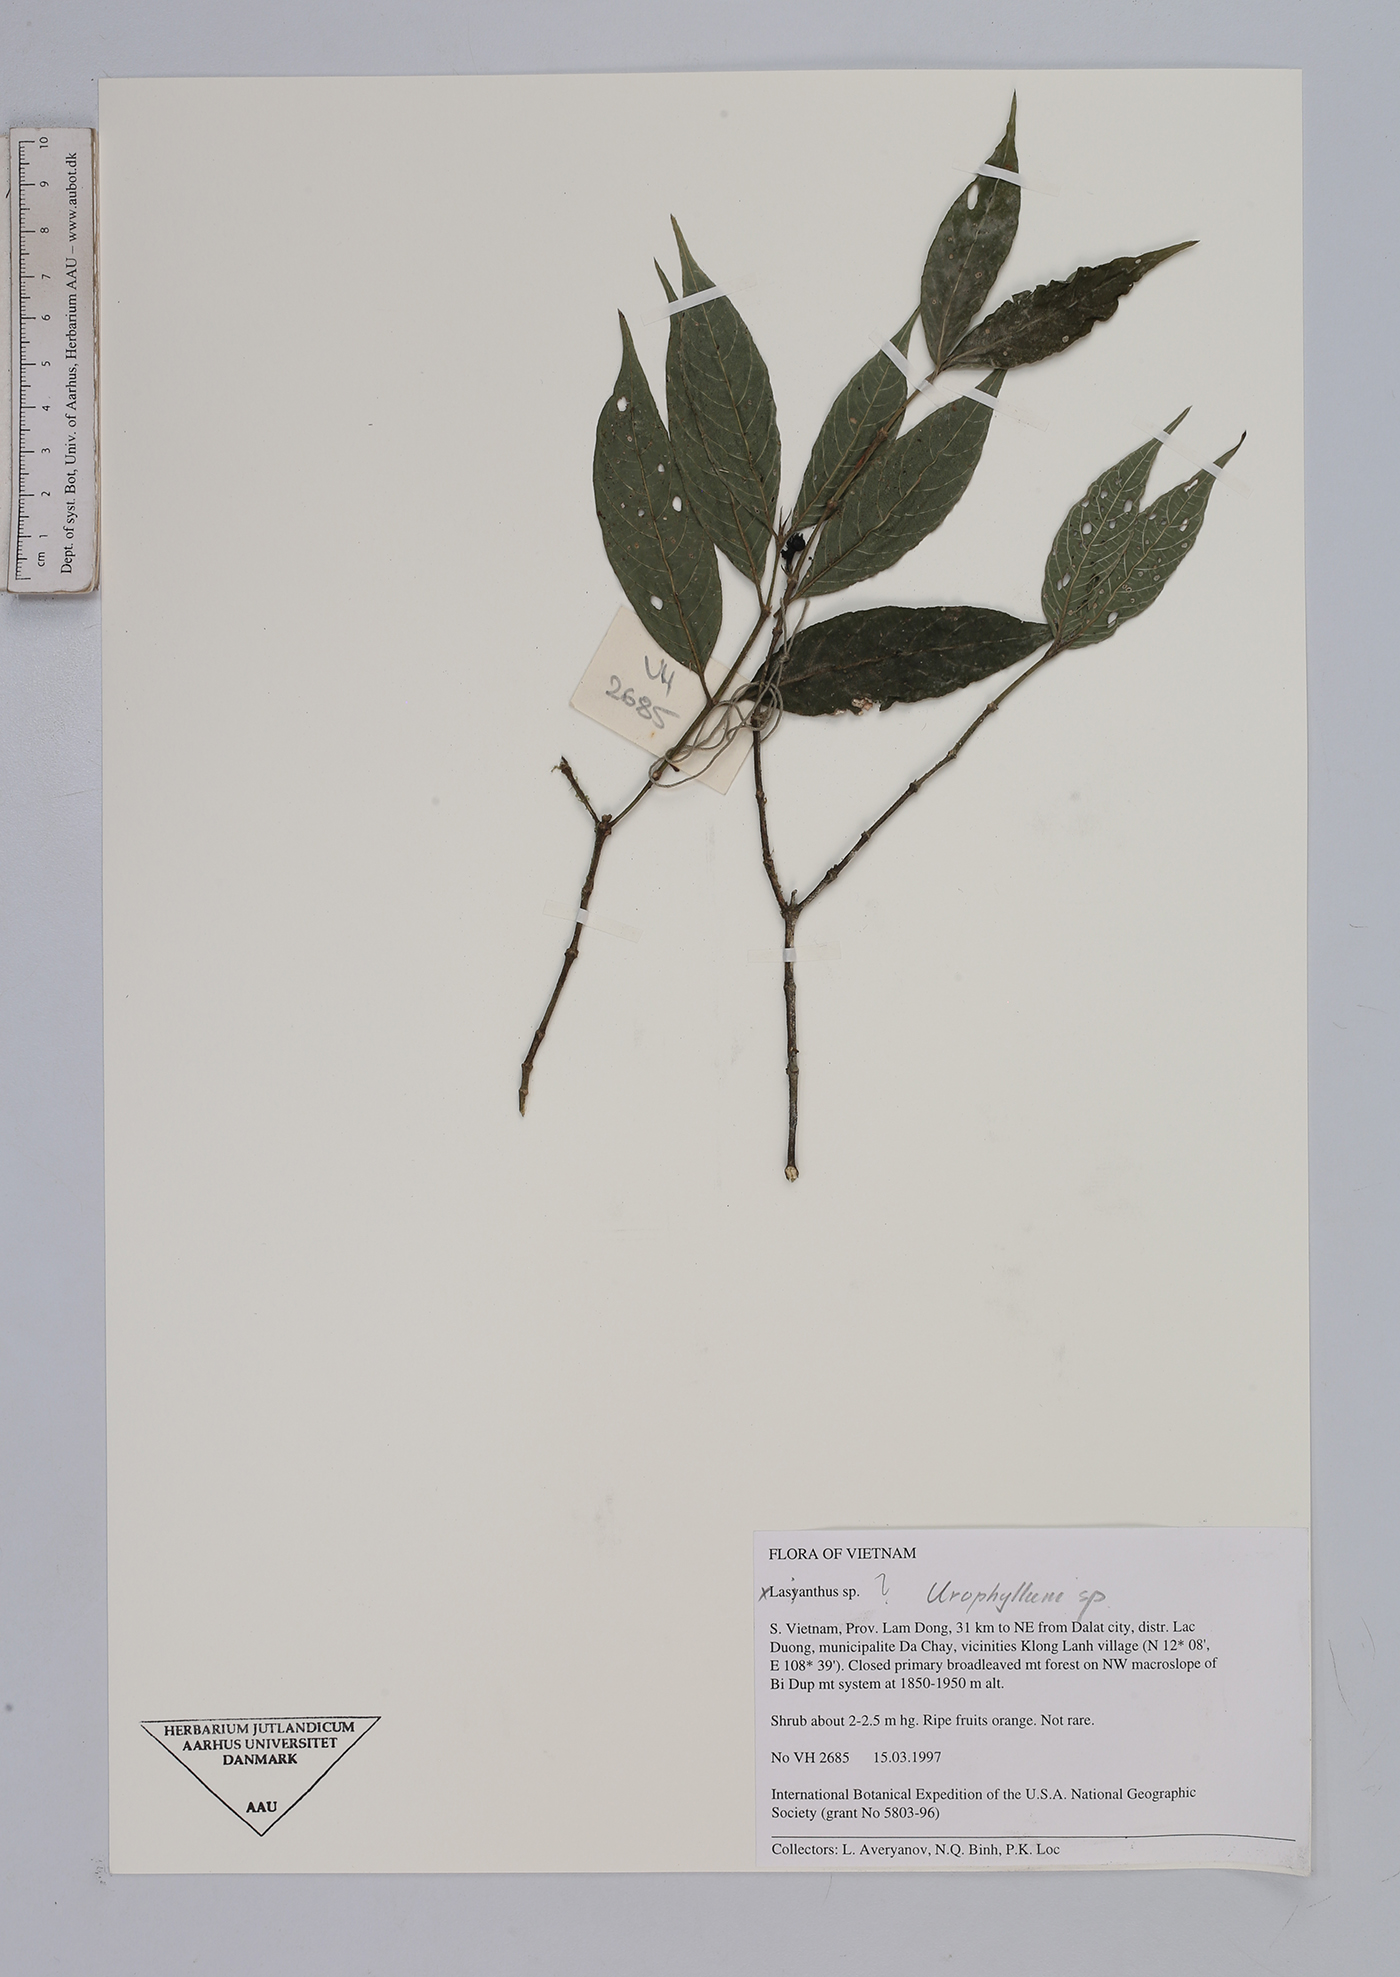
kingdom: Plantae
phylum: Tracheophyta
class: Magnoliopsida
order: Gentianales
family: Rubiaceae
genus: Urophyllum
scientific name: Urophyllum
